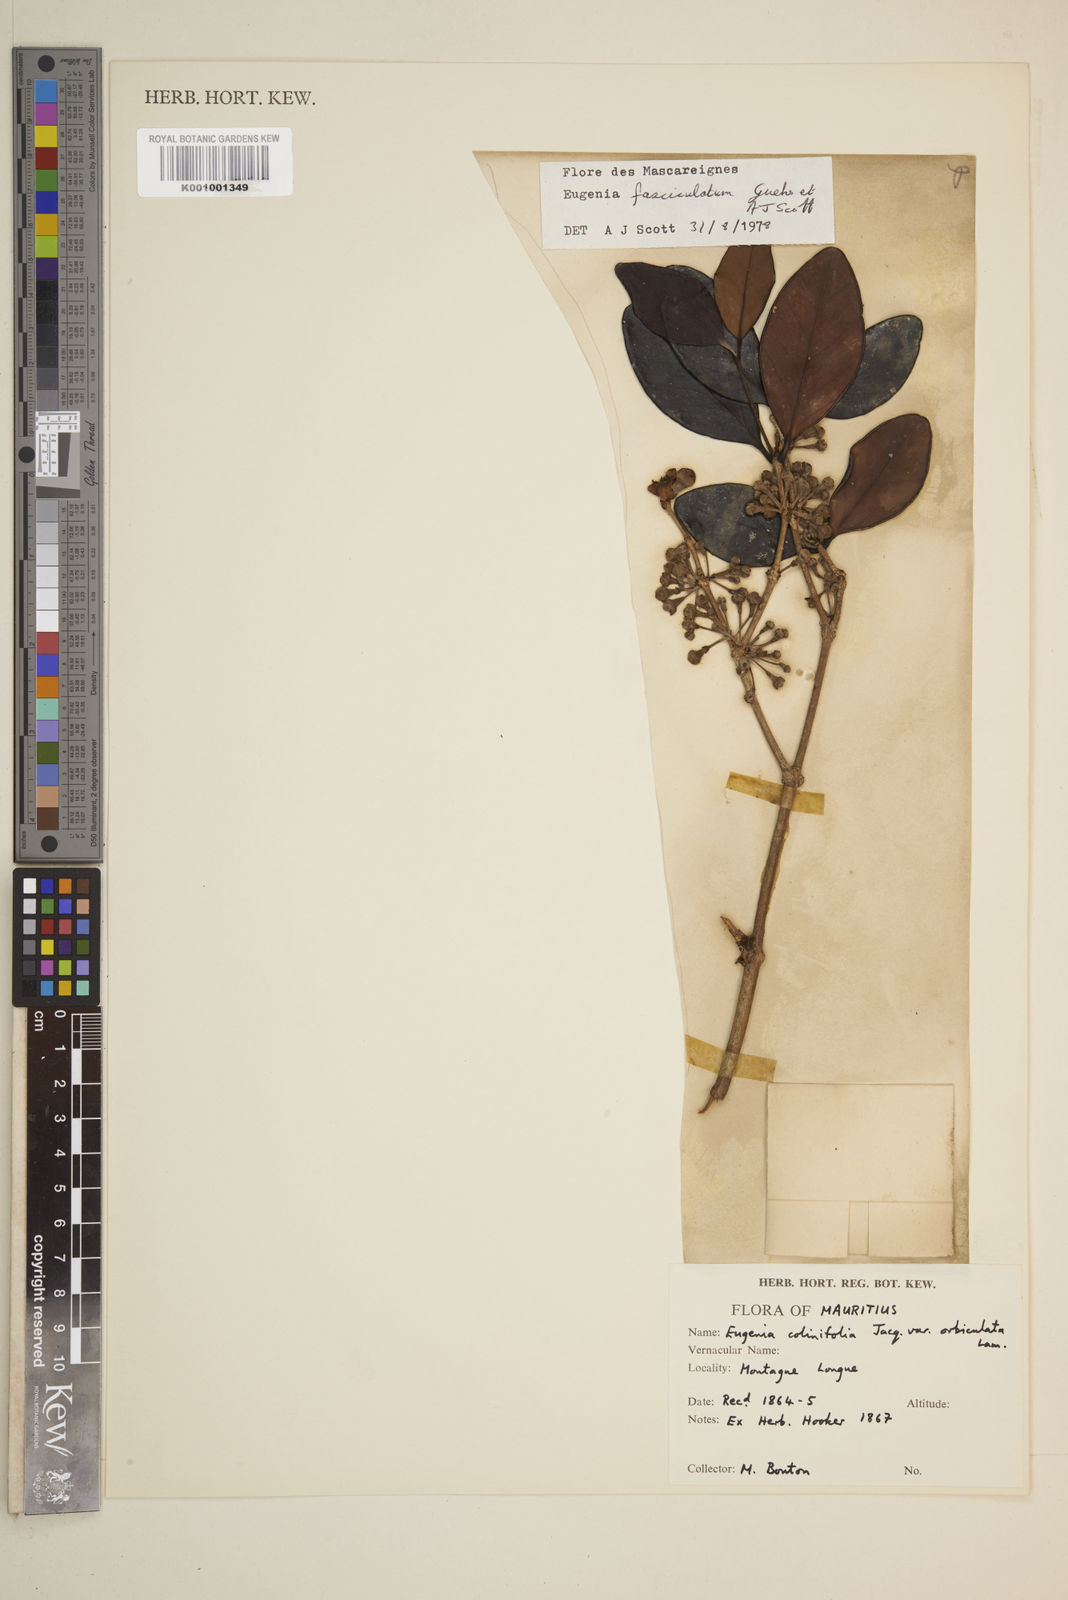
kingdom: Plantae
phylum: Tracheophyta
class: Magnoliopsida
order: Myrtales
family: Myrtaceae
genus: Eugenia
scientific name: Eugenia roxburghii
